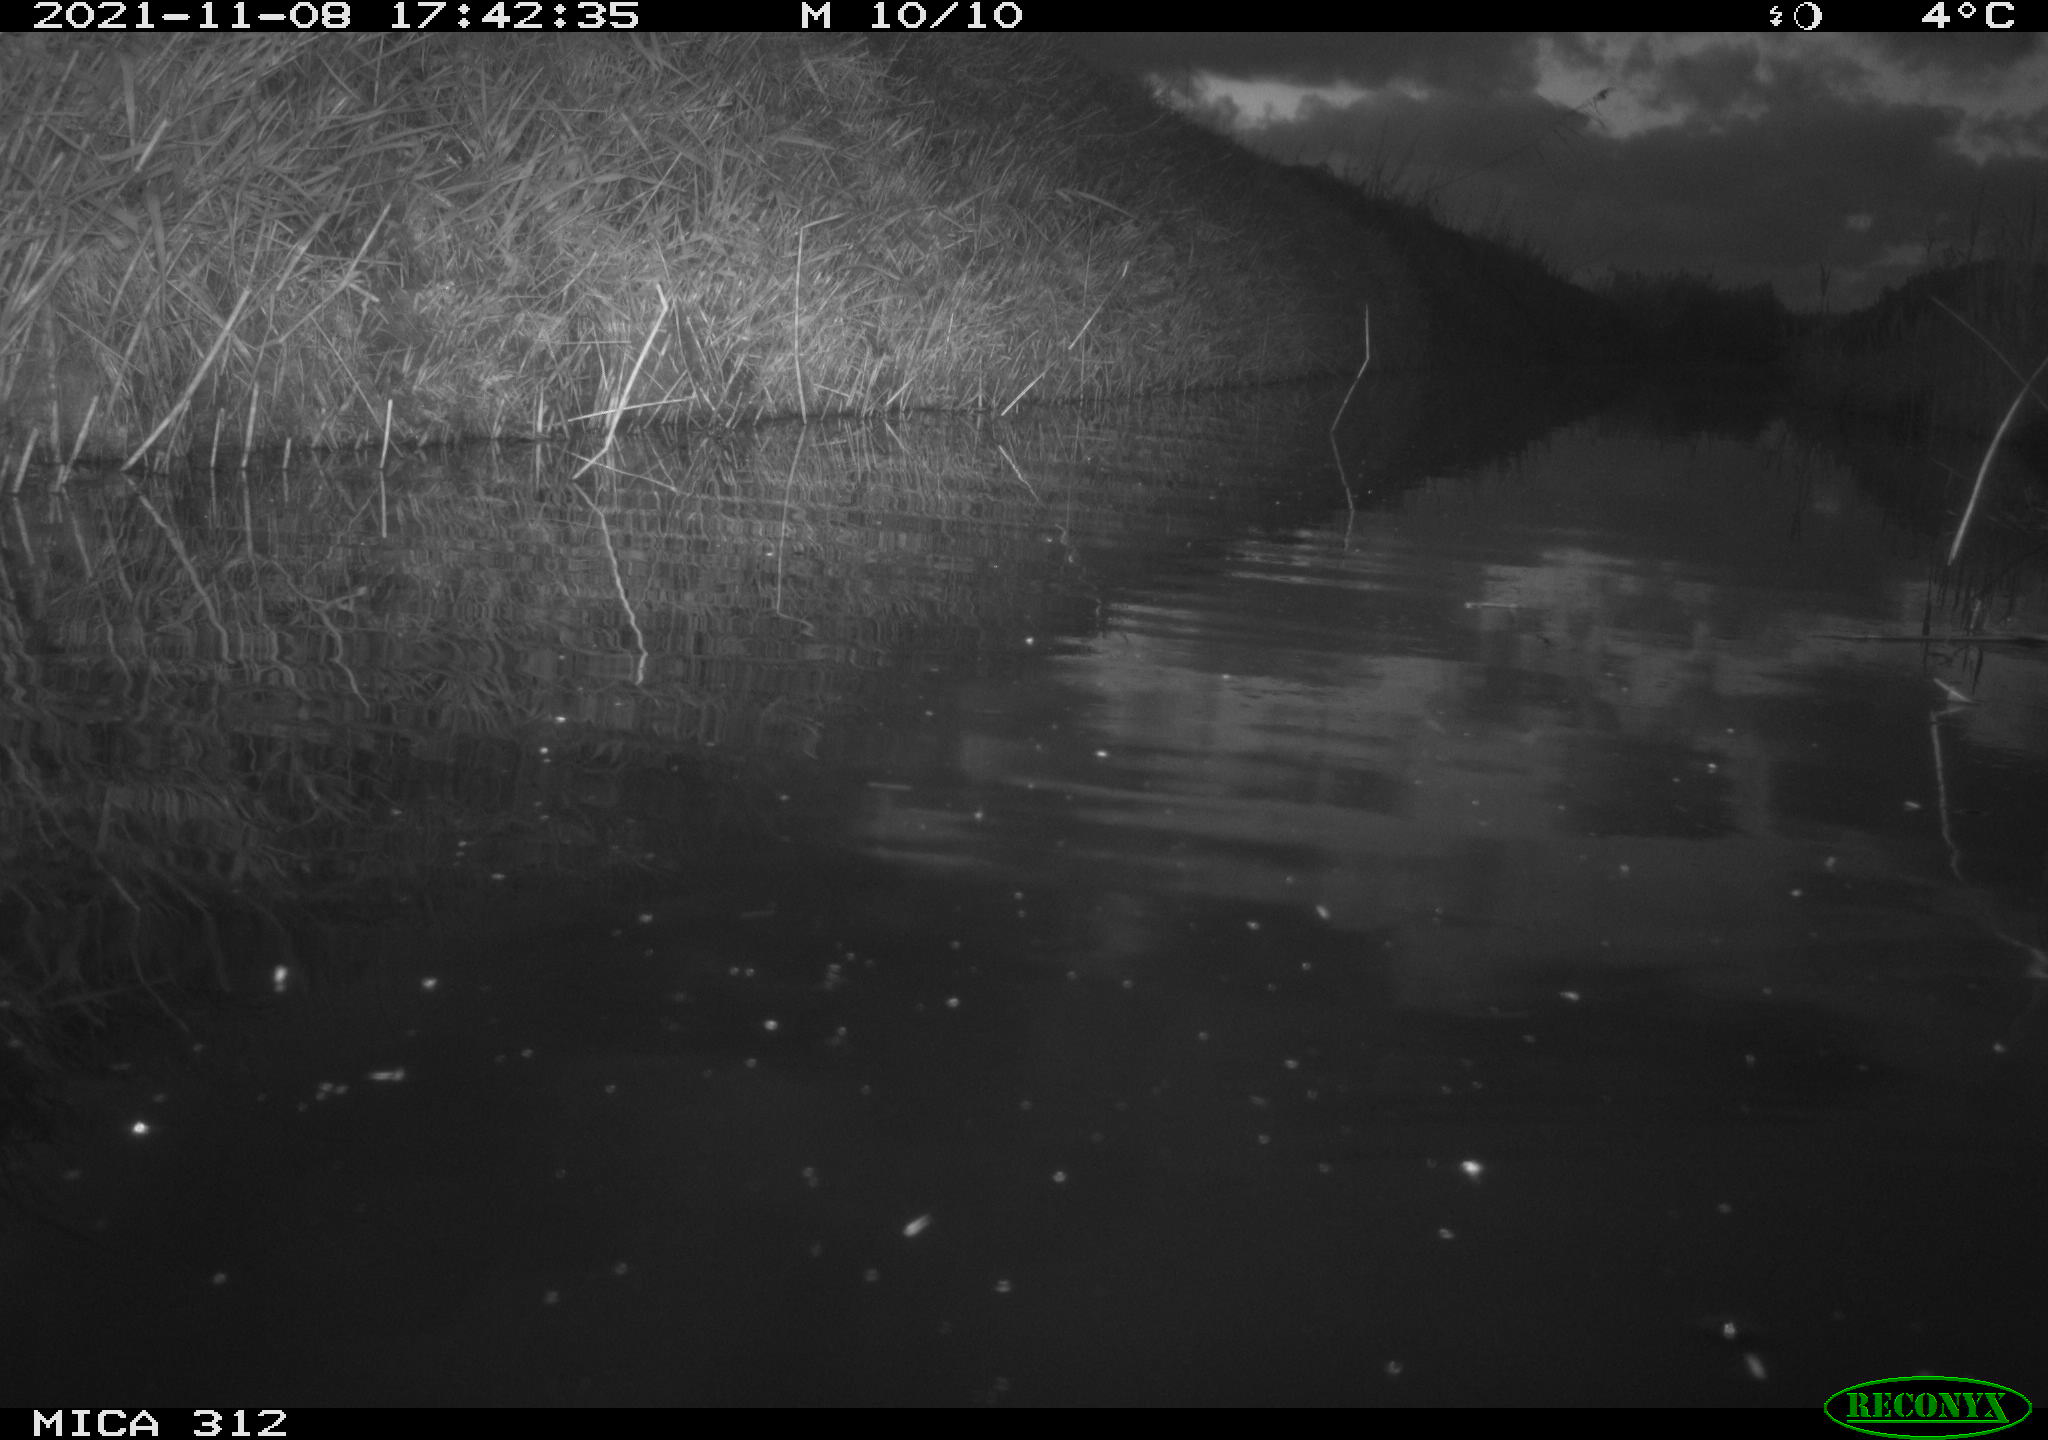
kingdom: Animalia
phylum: Chordata
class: Aves
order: Anseriformes
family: Anatidae
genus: Anas
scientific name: Anas
